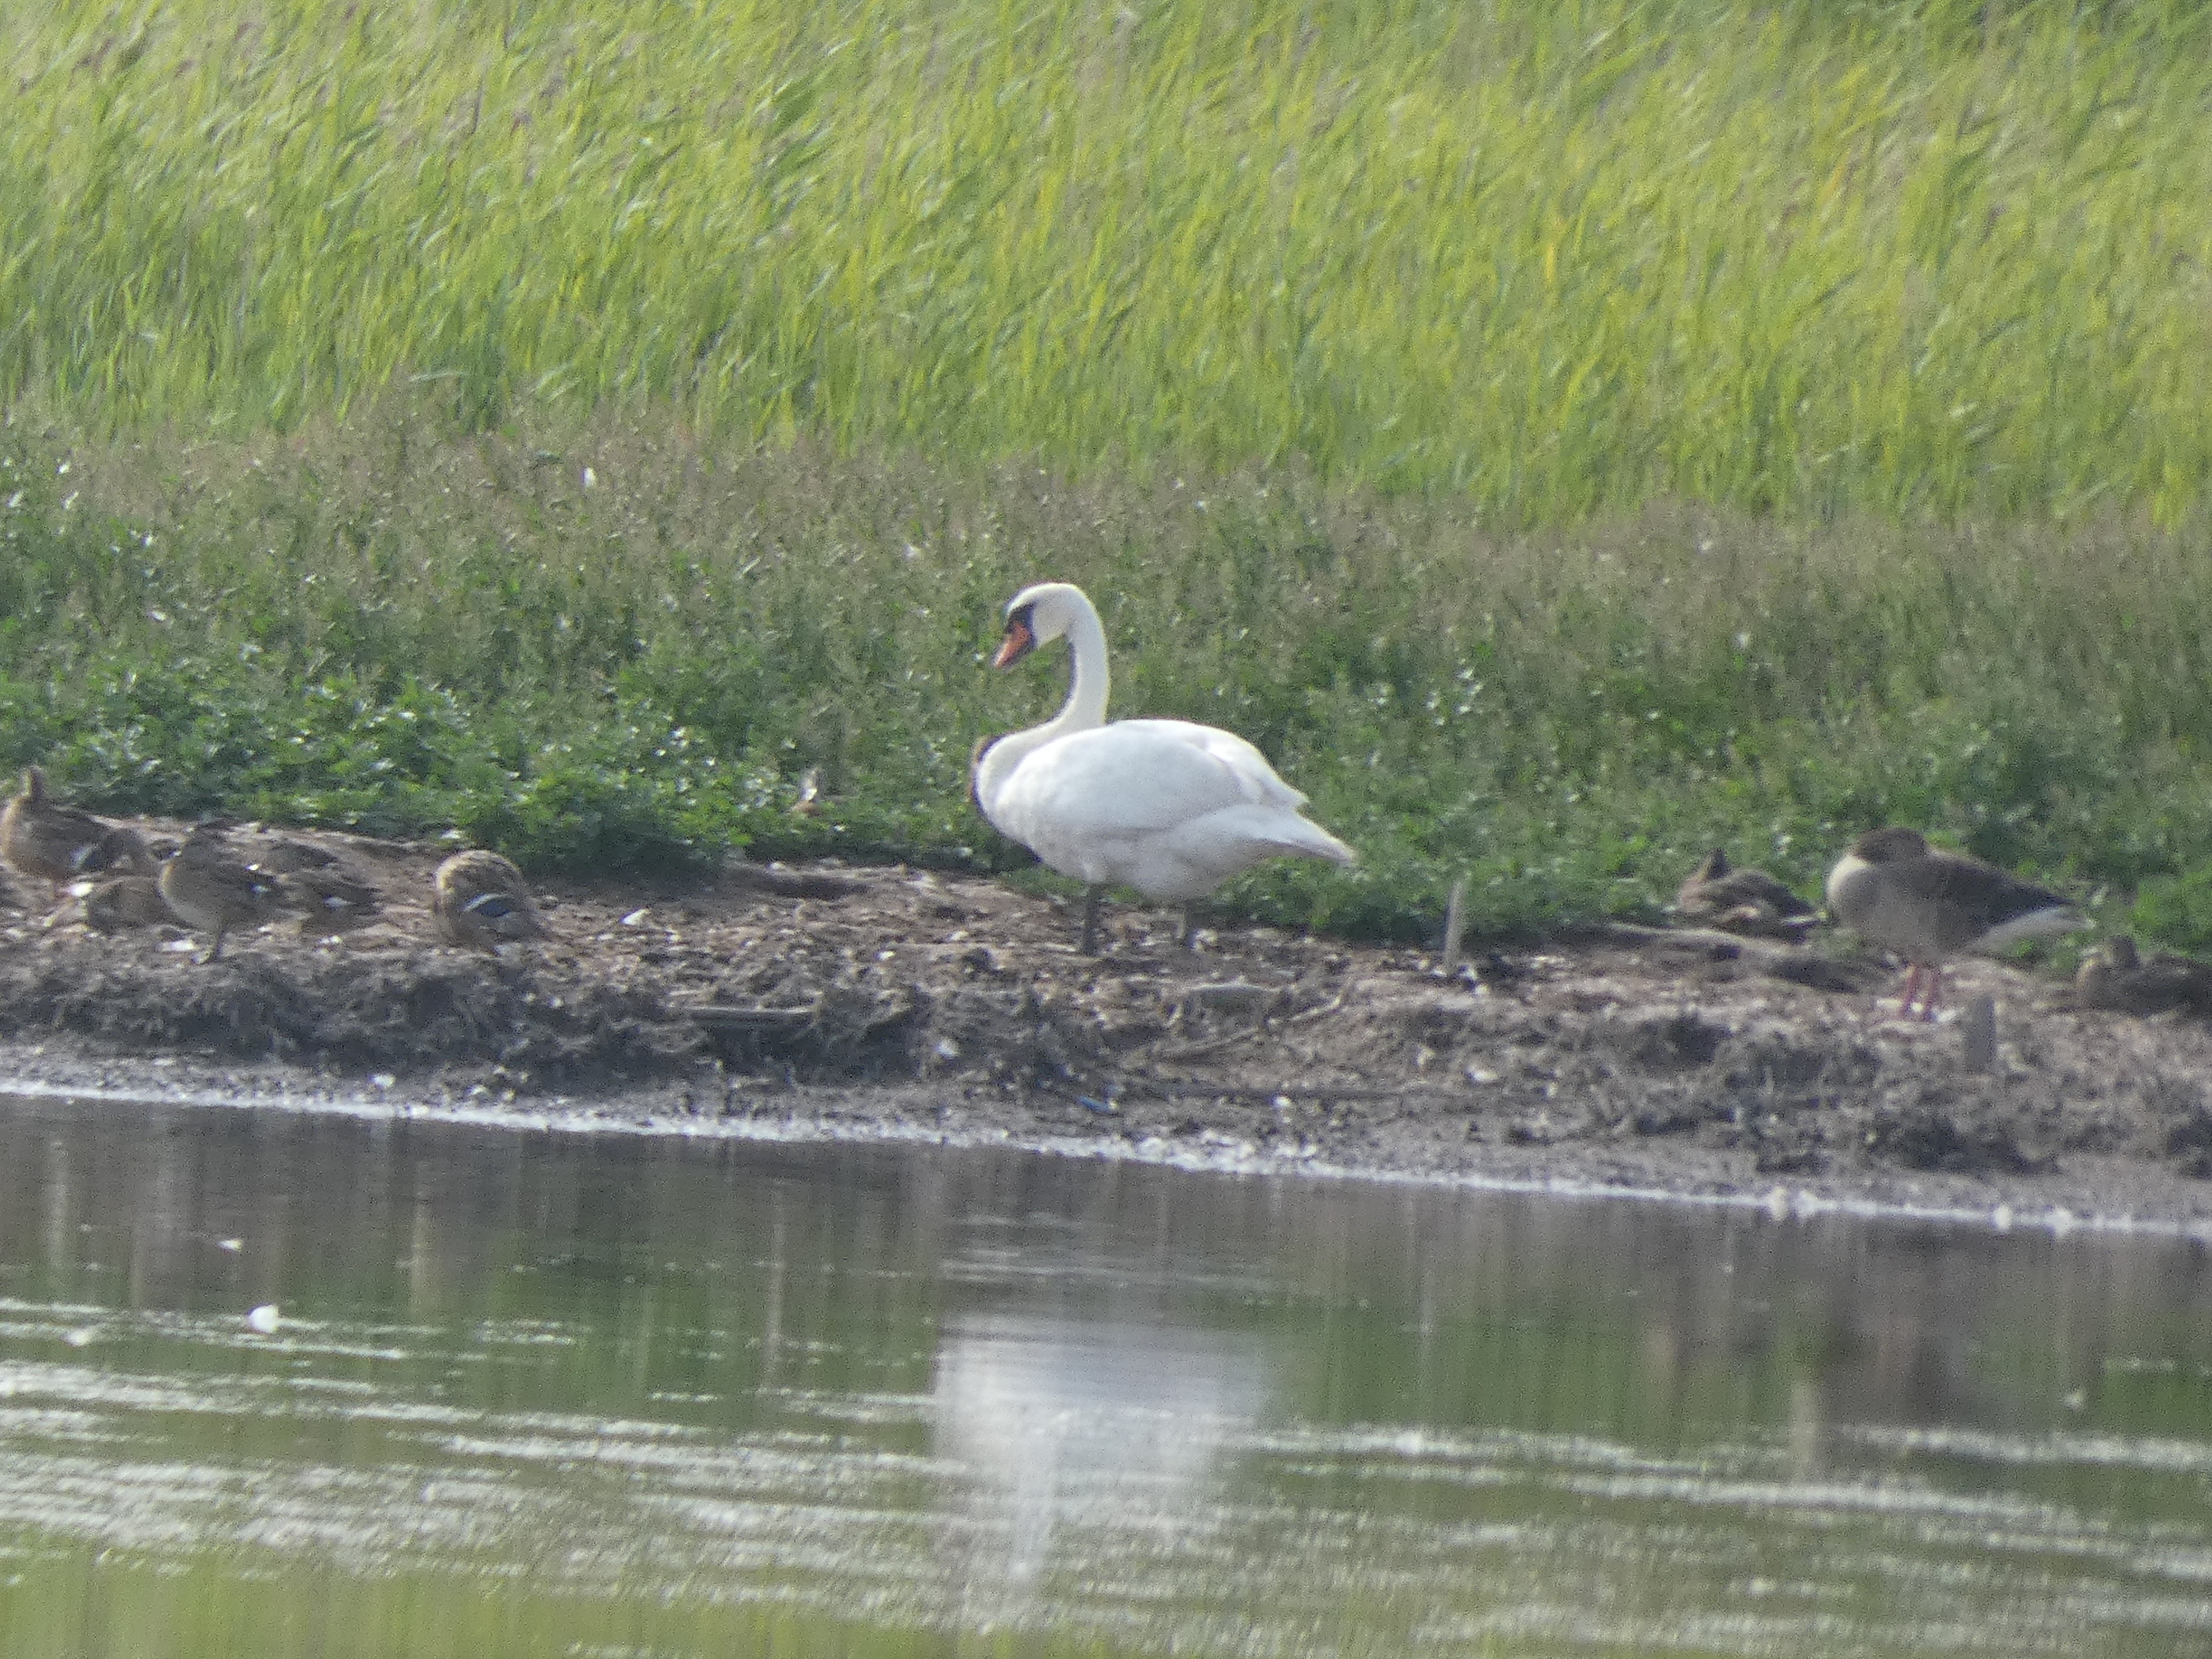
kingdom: Animalia
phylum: Chordata
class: Aves
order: Anseriformes
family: Anatidae
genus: Cygnus
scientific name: Cygnus olor
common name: Knopsvane
